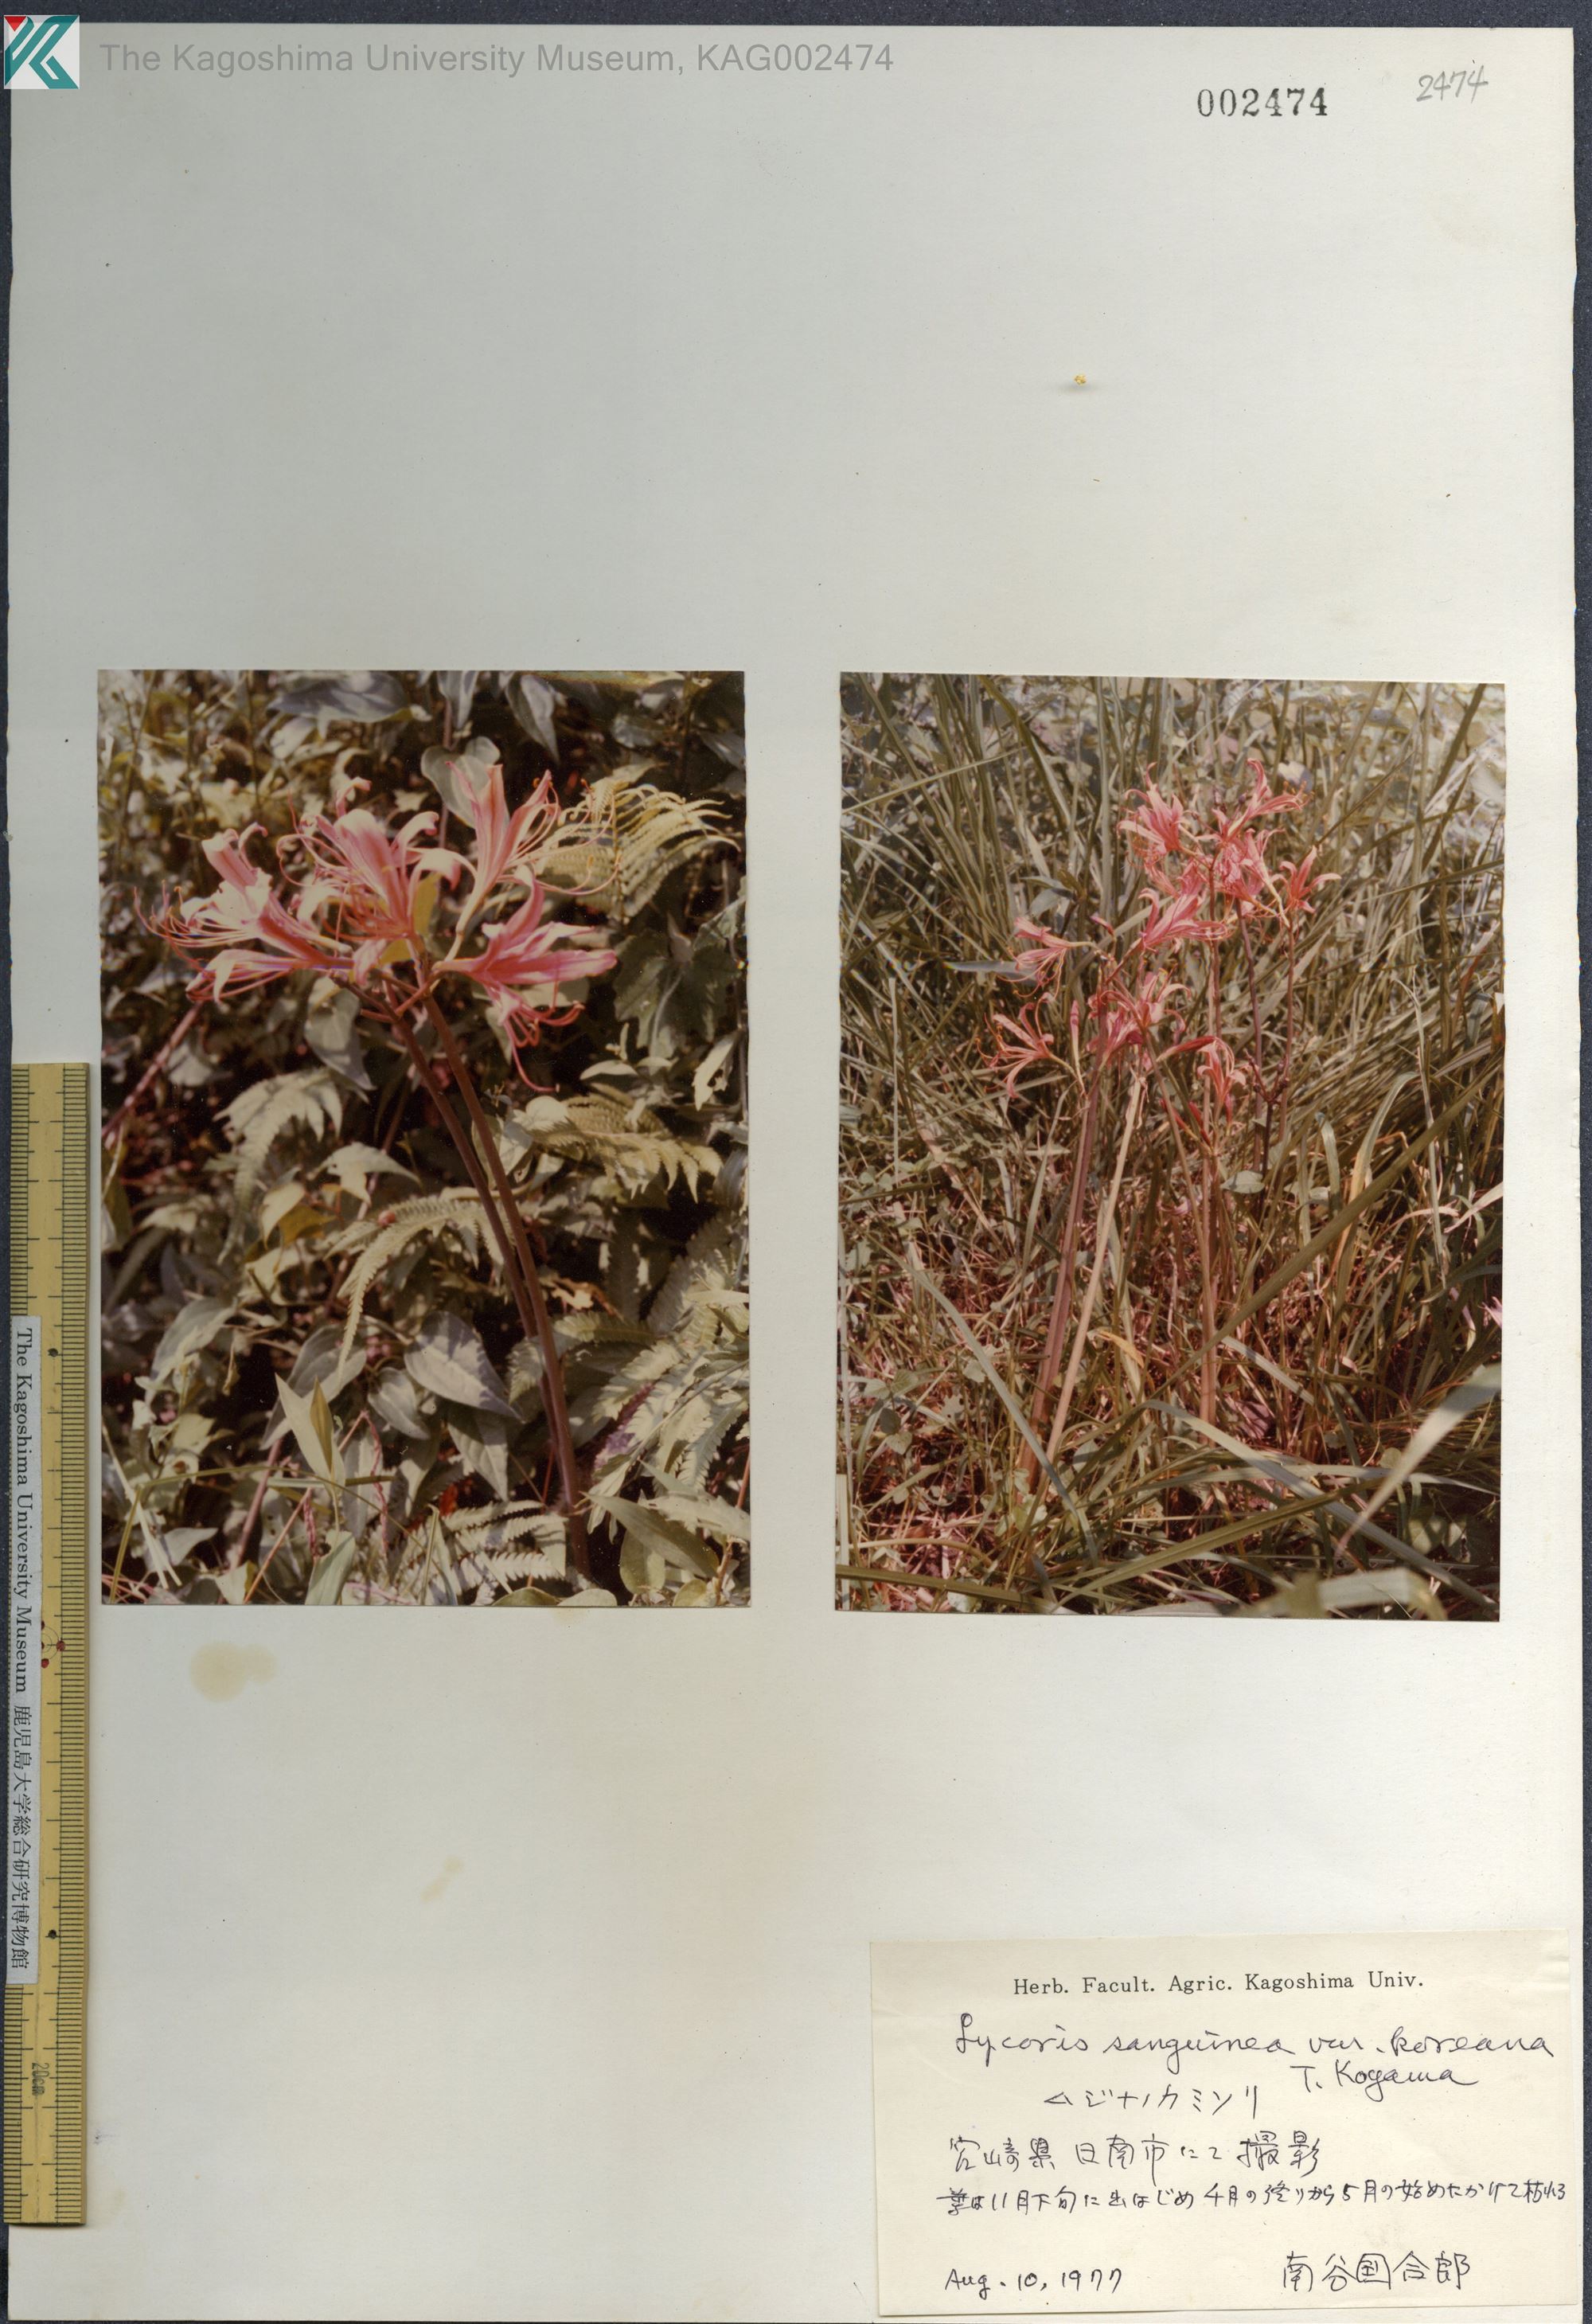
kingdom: Plantae
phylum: Tracheophyta
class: Liliopsida
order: Asparagales
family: Amaryllidaceae
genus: Lycoris
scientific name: Lycoris sanguinea
